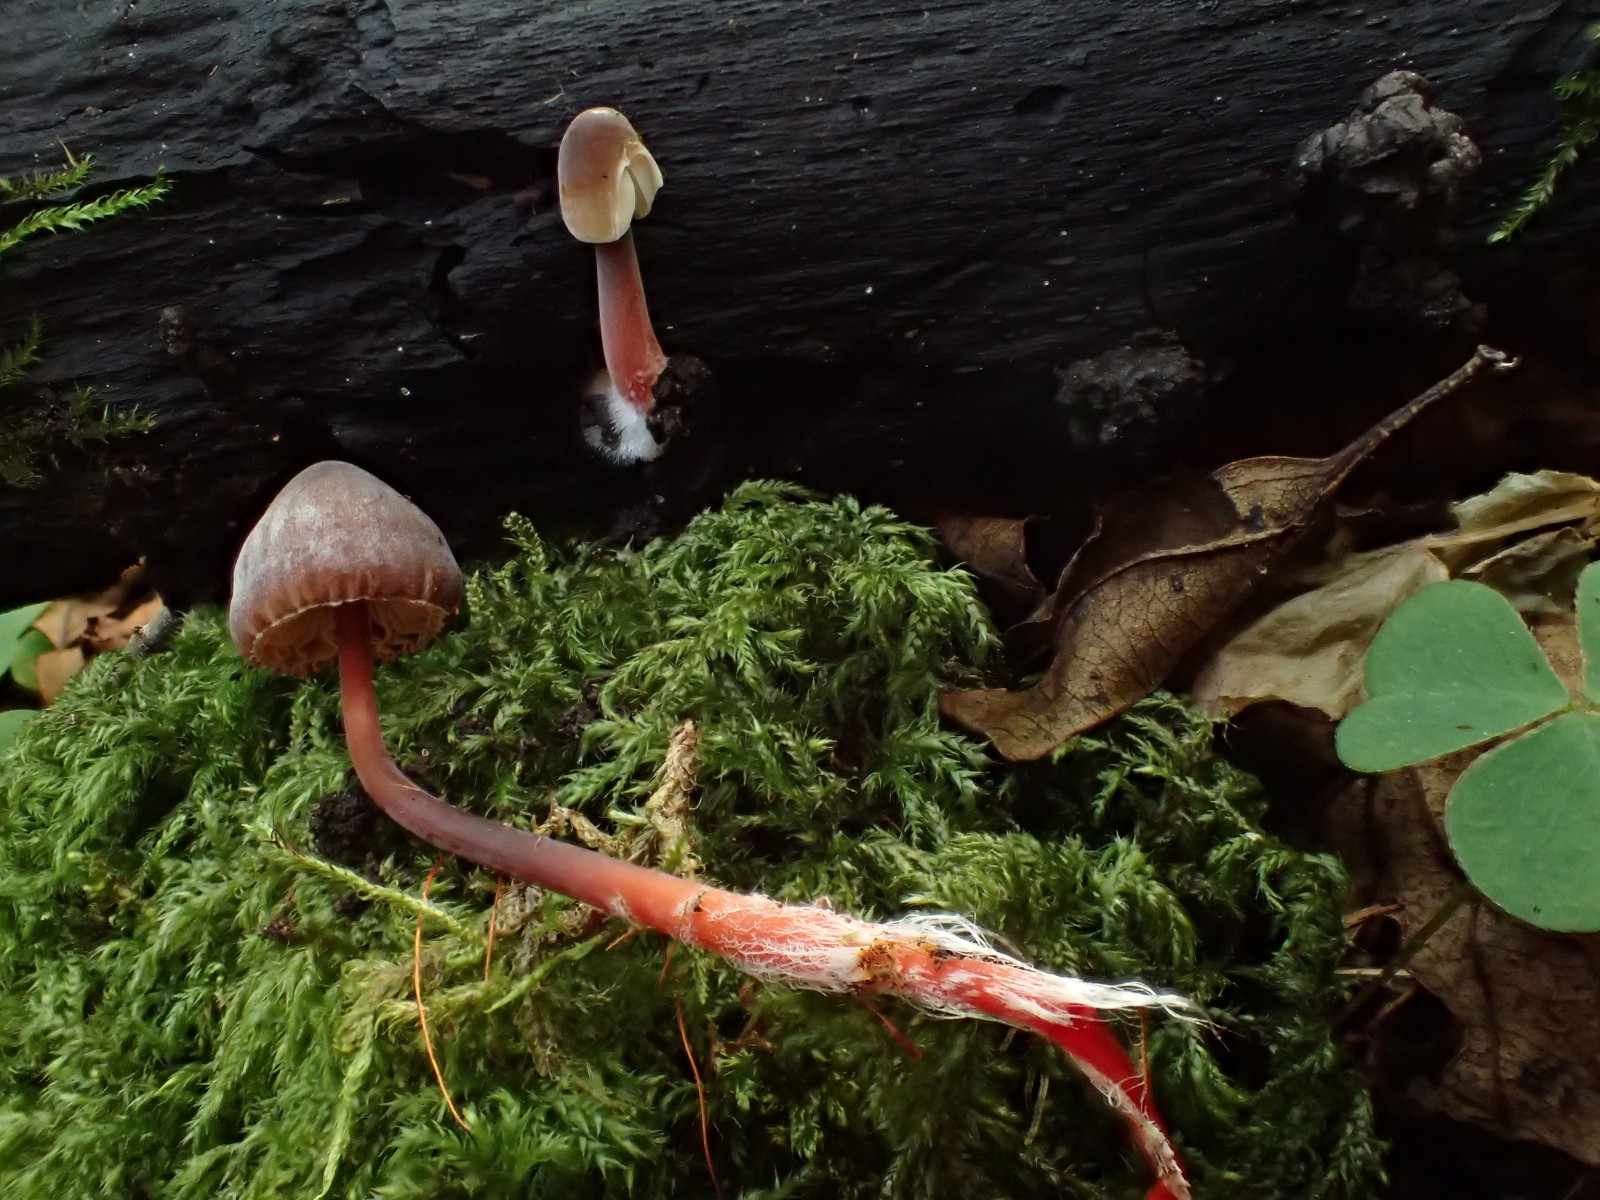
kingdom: Fungi
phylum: Basidiomycota
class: Agaricomycetes
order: Agaricales
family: Mycenaceae
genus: Mycena
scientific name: Mycena crocata
